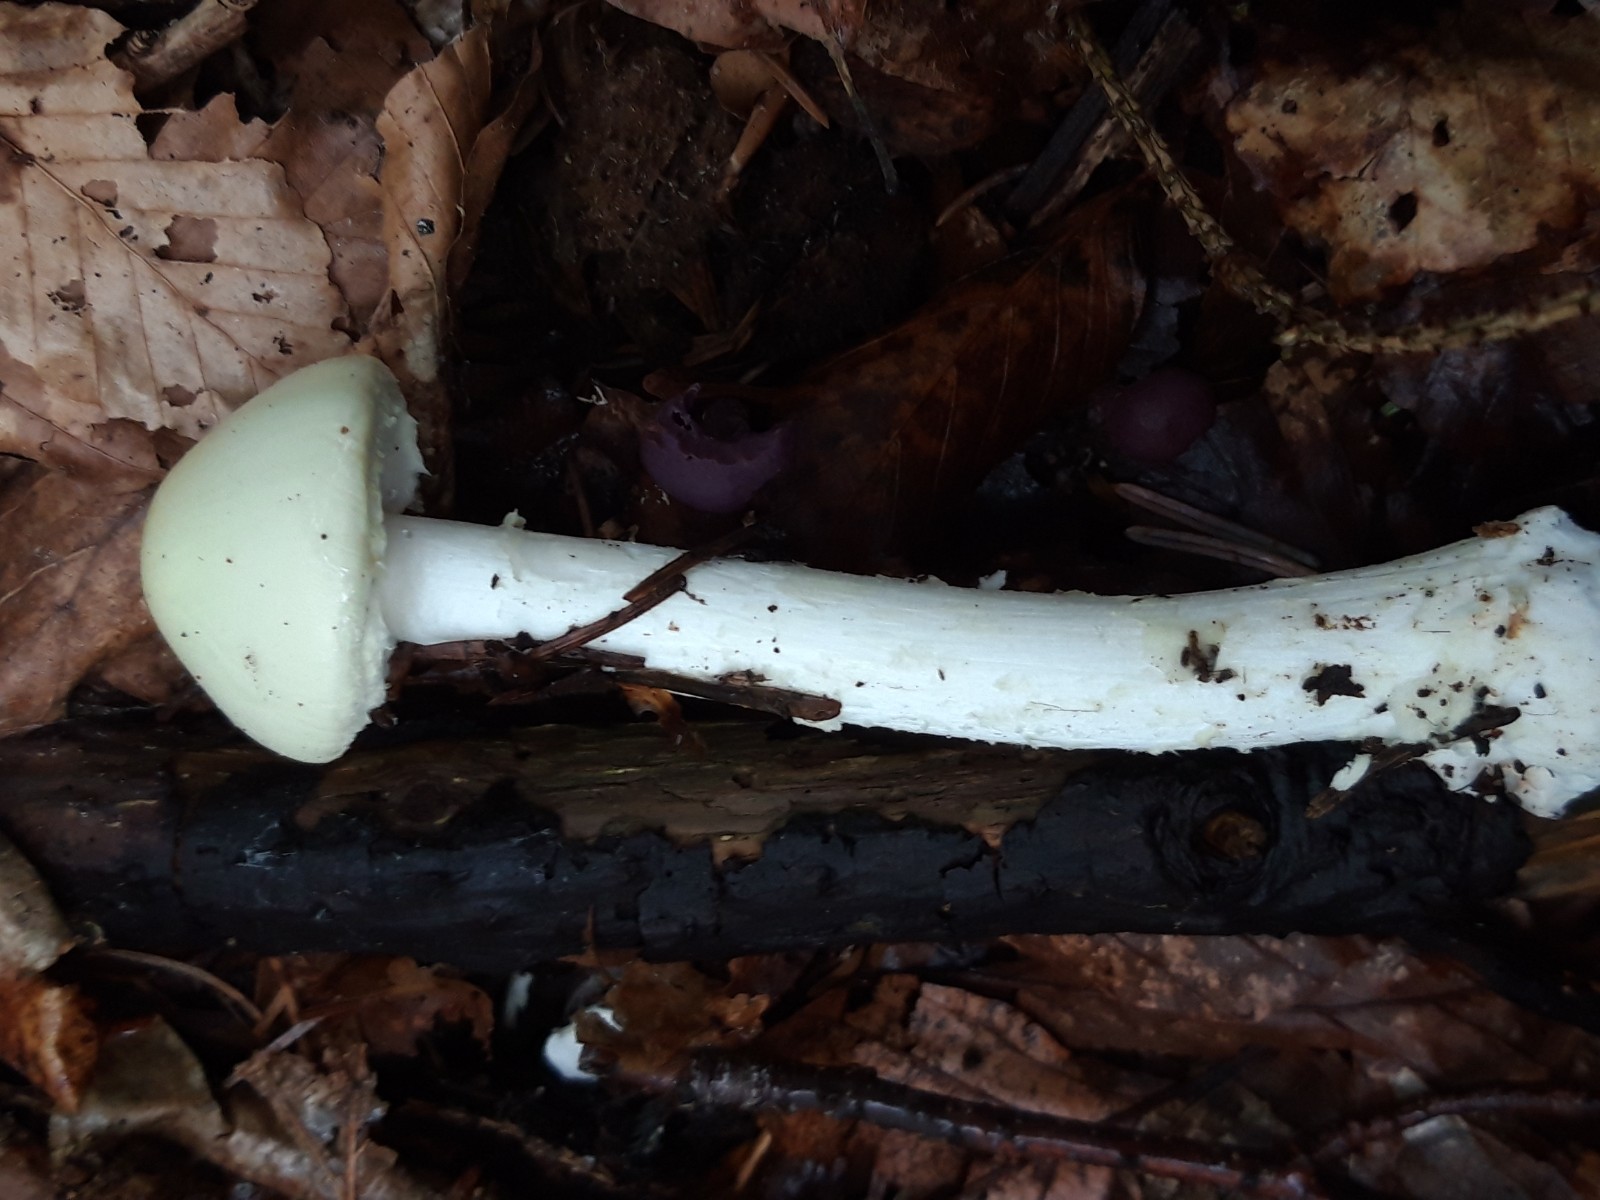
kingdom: Fungi
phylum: Basidiomycota
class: Agaricomycetes
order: Agaricales
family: Amanitaceae
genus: Amanita
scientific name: Amanita citrina
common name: kugleknoldet fluesvamp
